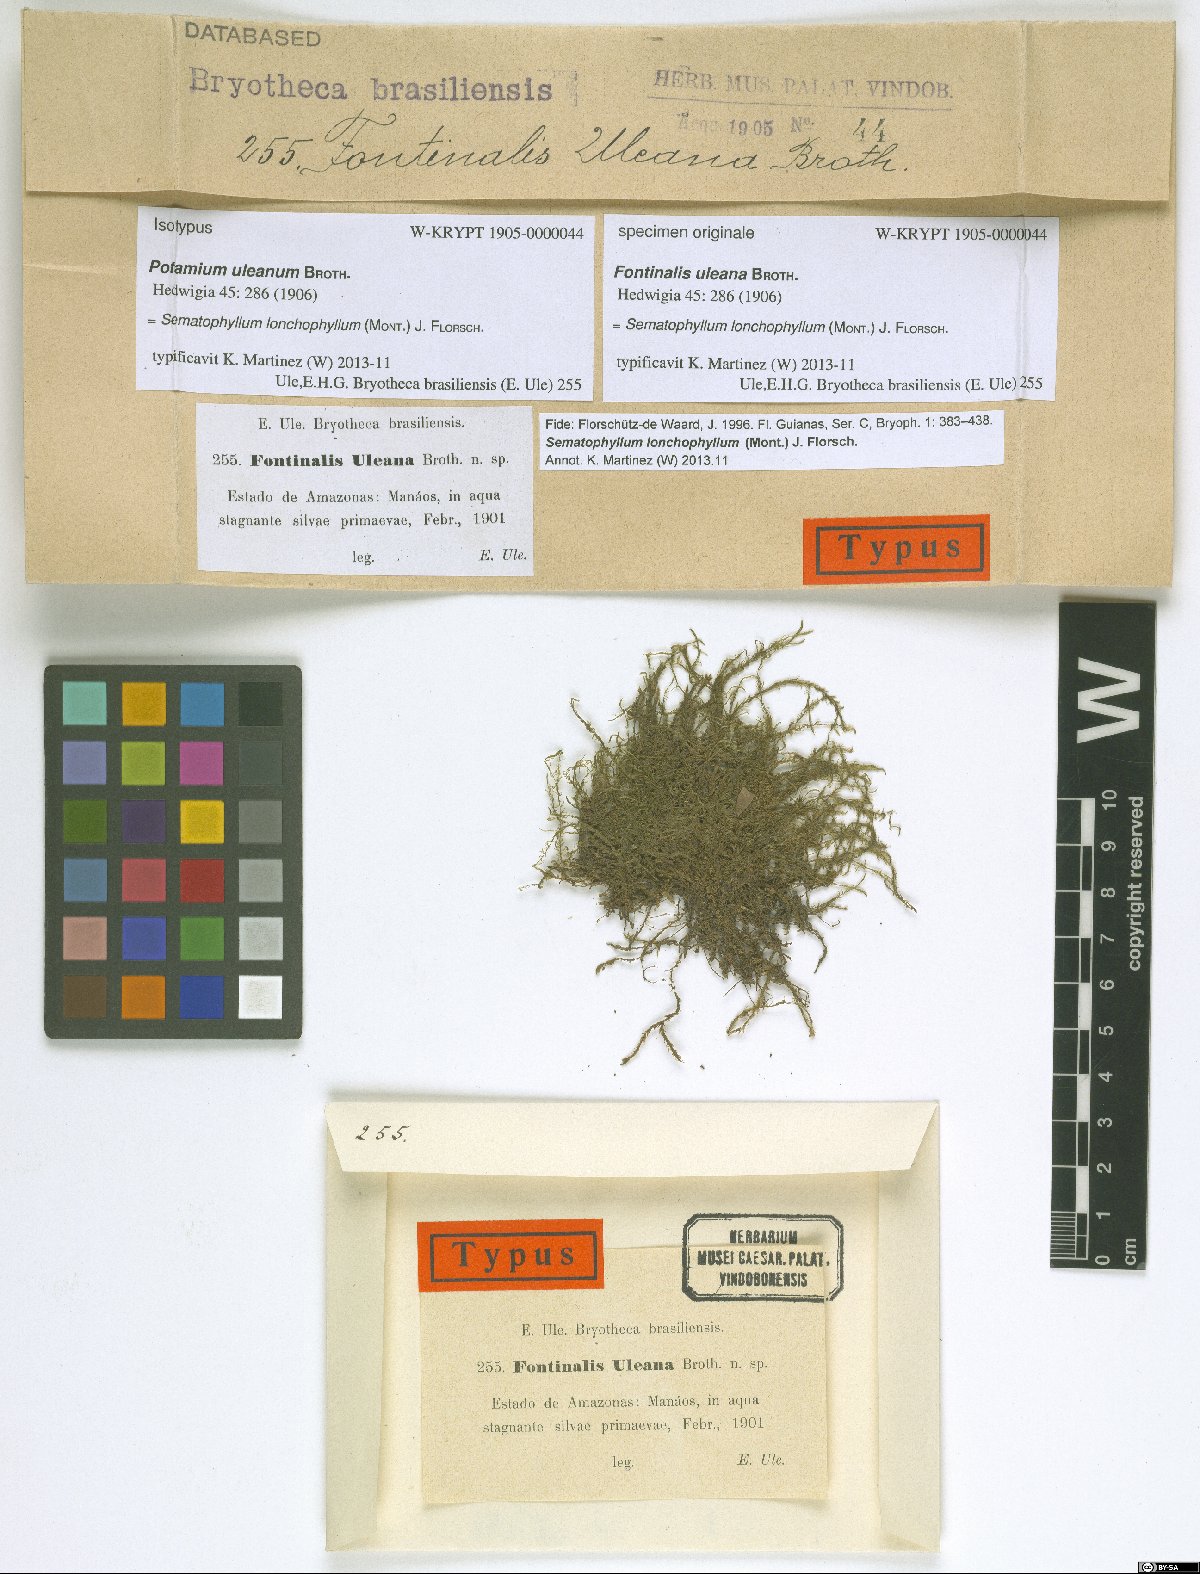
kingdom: Plantae
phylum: Bryophyta
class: Bryopsida
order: Hypnales
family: Sematophyllaceae
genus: Trichosteleum
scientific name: Trichosteleum lonchophyllum
